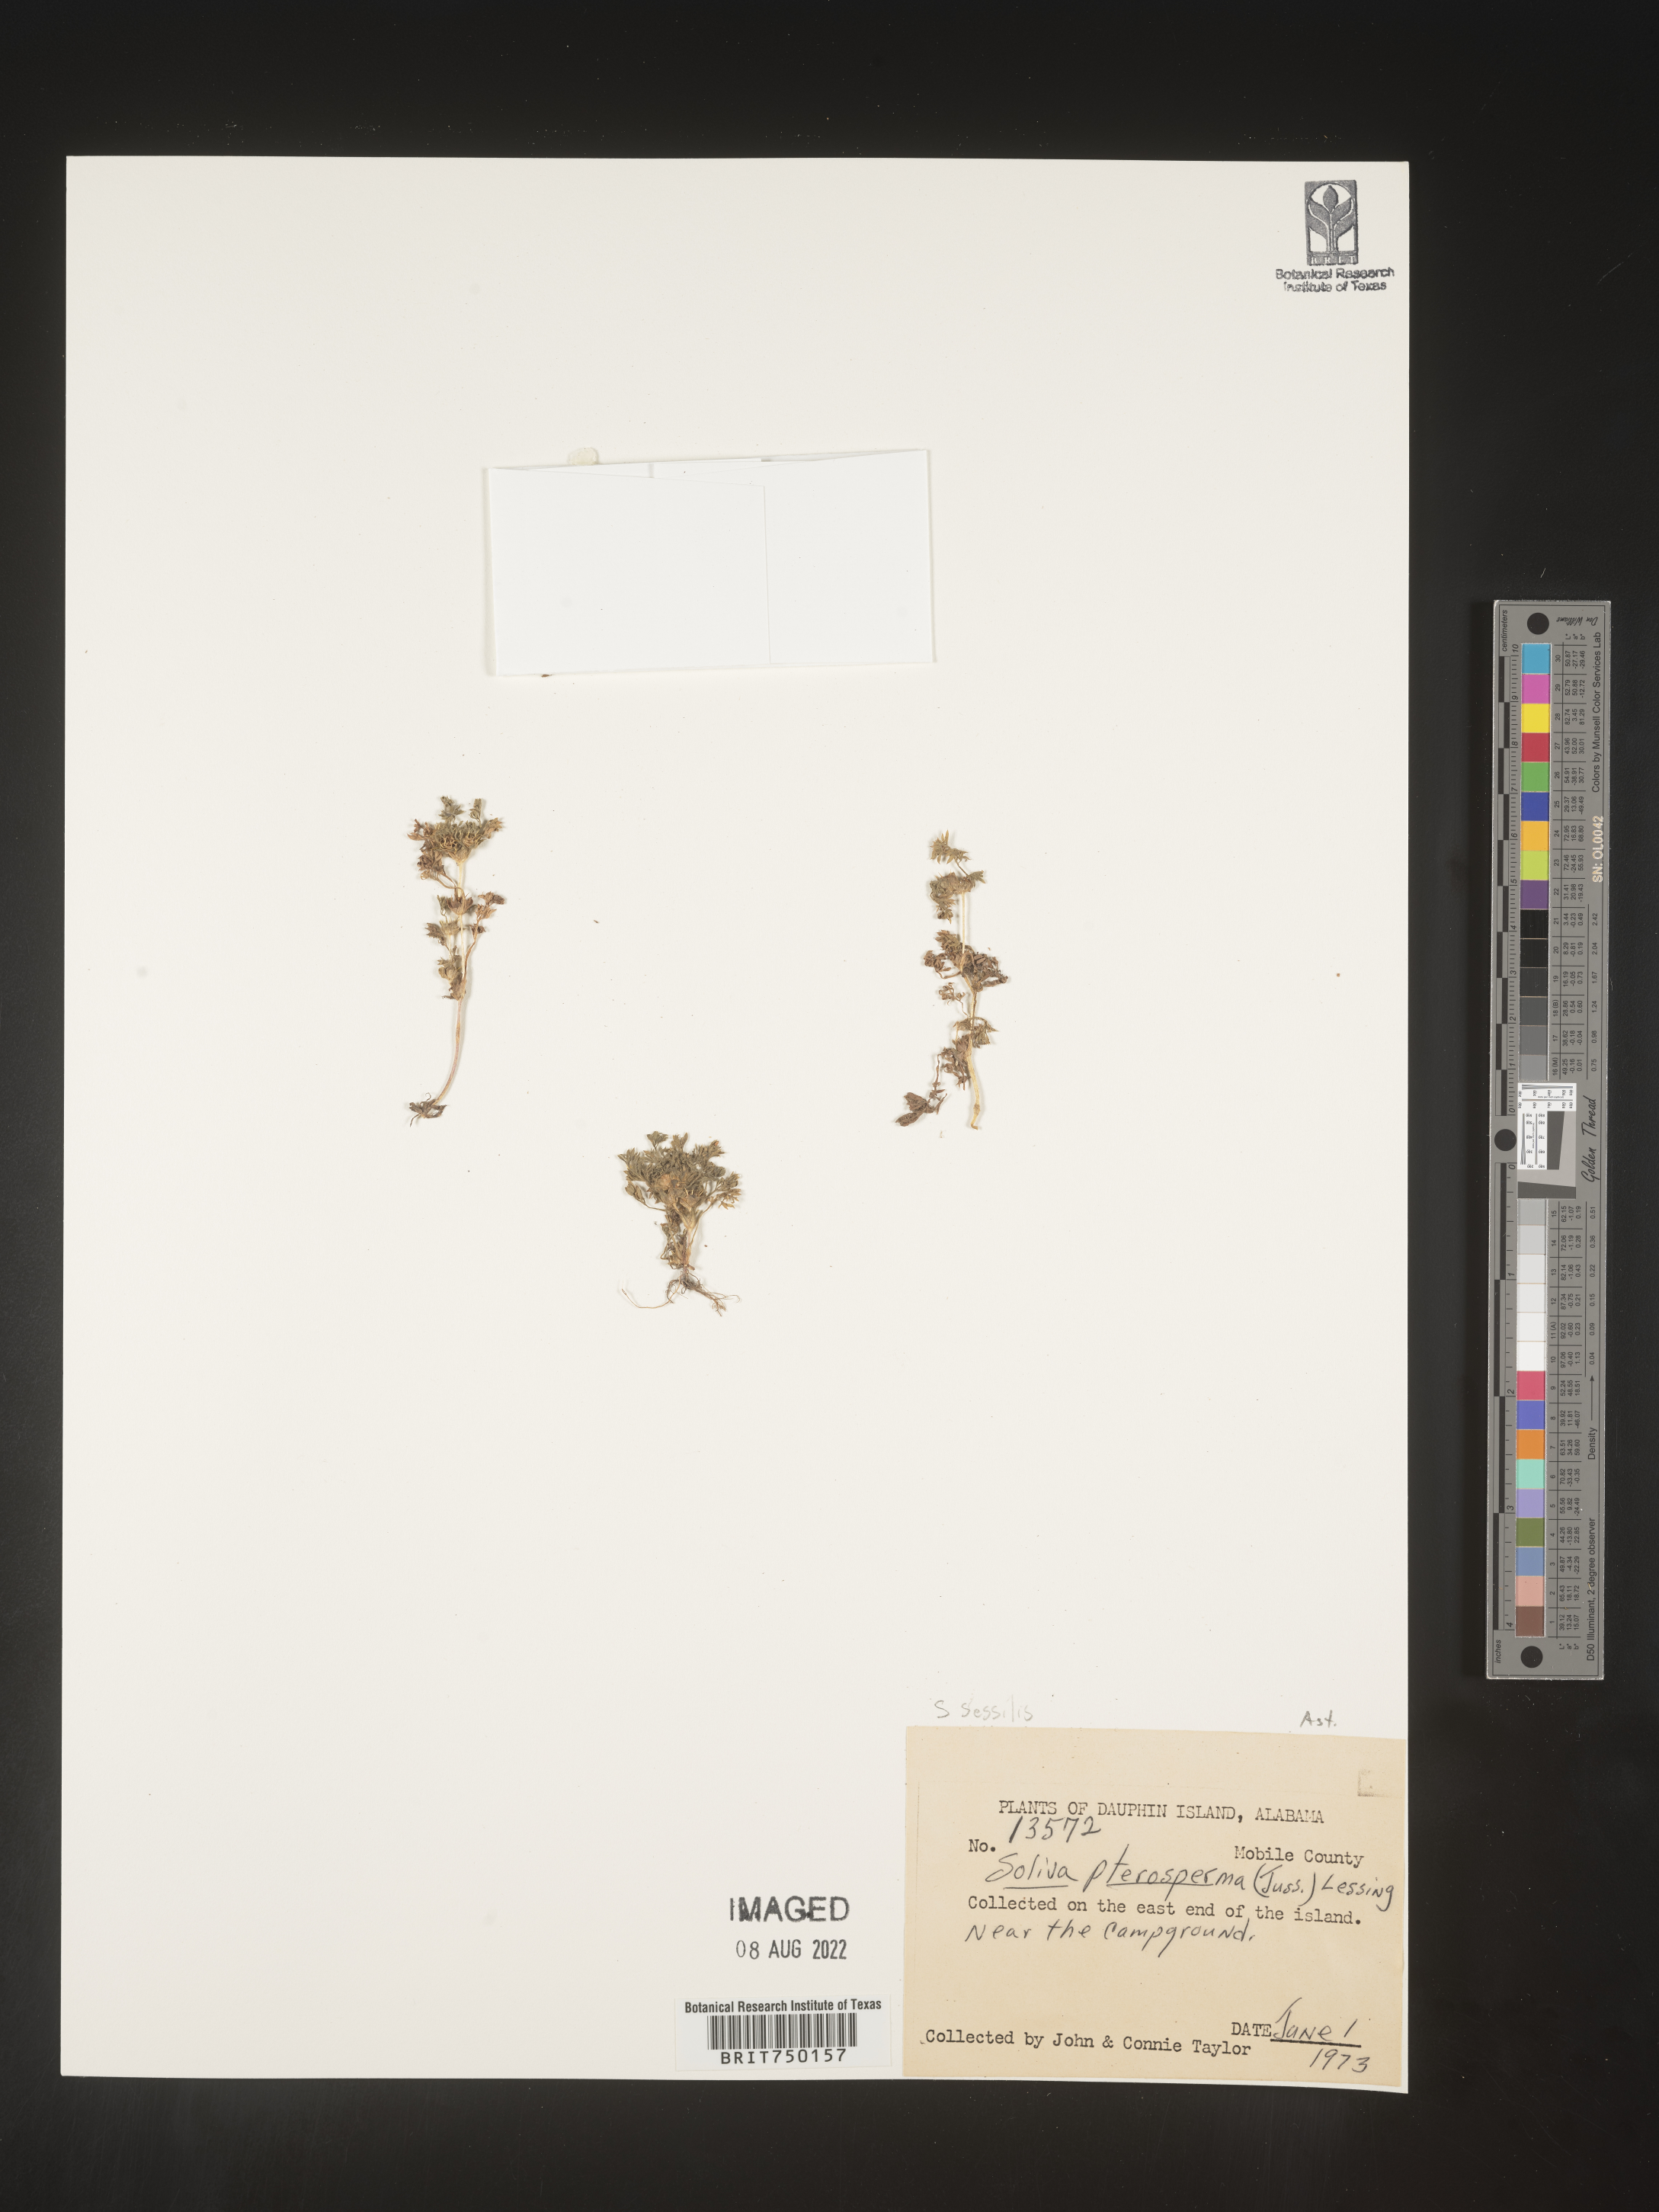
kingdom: Plantae
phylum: Tracheophyta
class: Magnoliopsida
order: Asterales
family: Asteraceae
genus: Soliva
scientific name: Soliva sessilis
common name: Field burrweed
